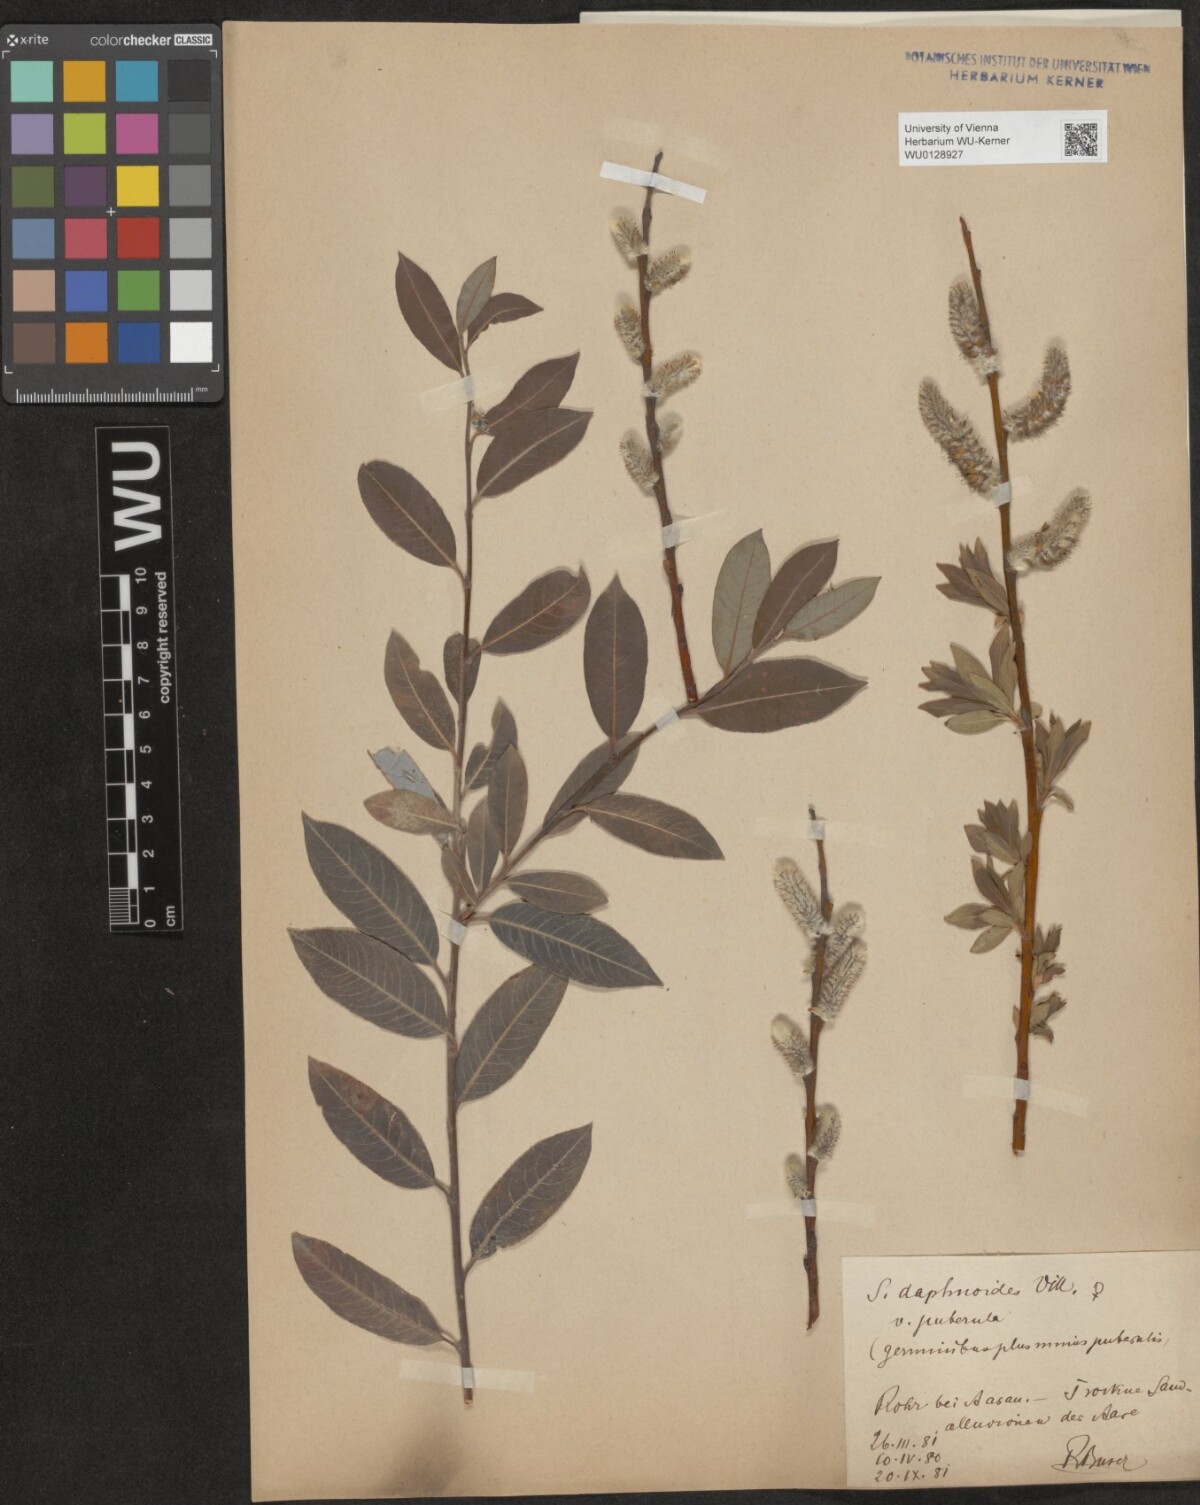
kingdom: Plantae
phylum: Tracheophyta
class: Magnoliopsida
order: Malpighiales
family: Salicaceae
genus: Salix
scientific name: Salix daphnoides
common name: European violet-willow
